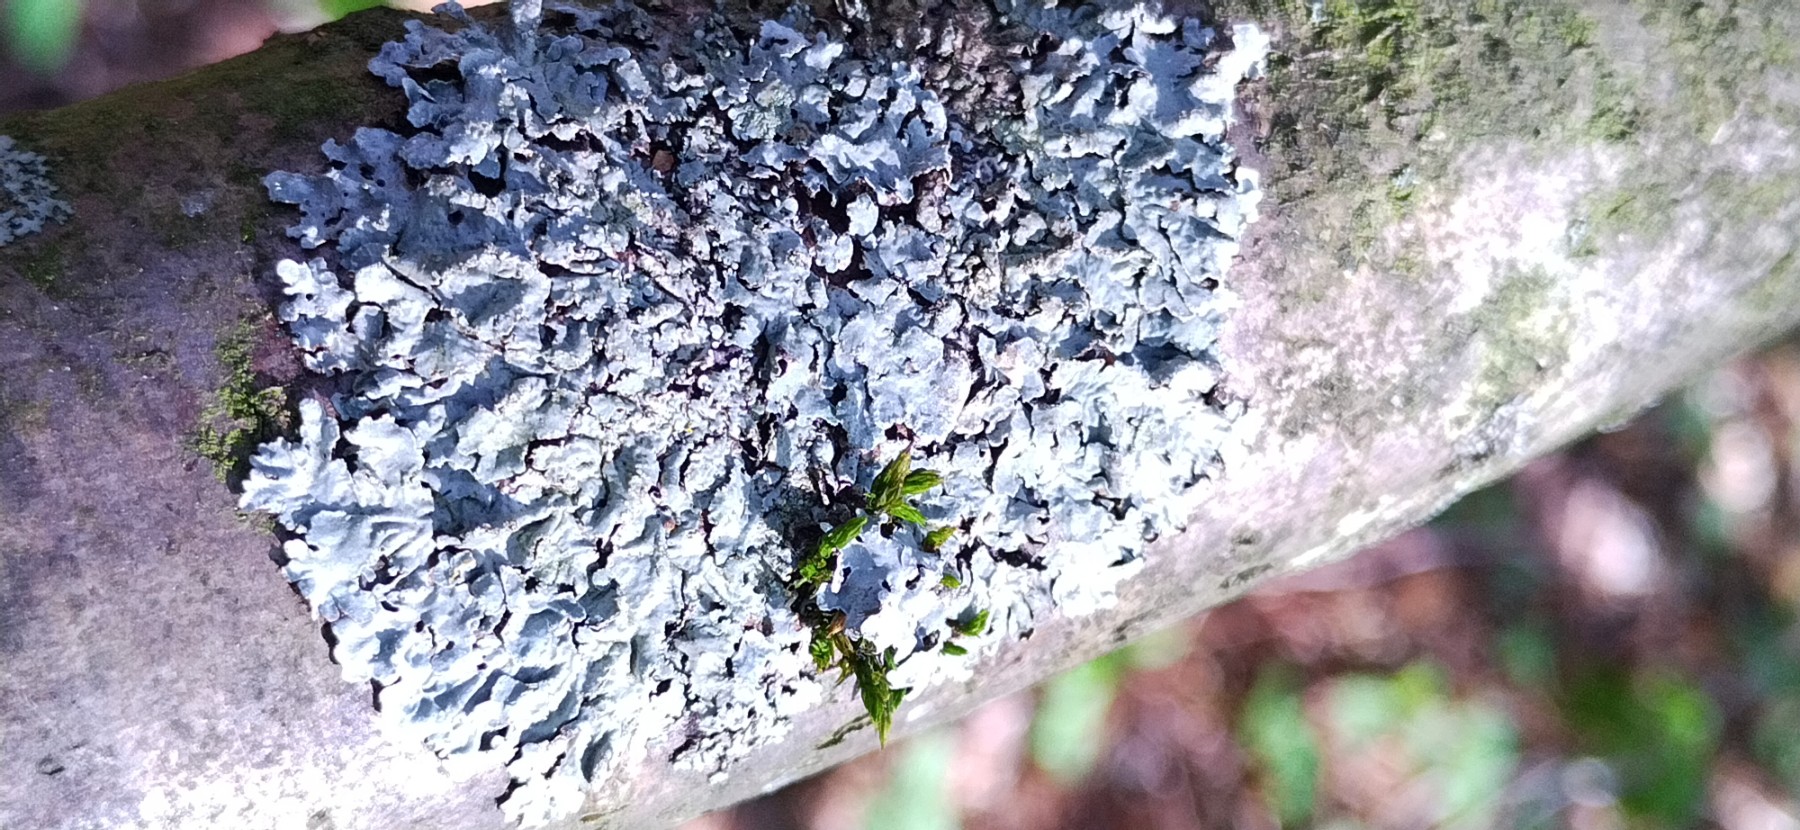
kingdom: Fungi
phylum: Ascomycota
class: Lecanoromycetes
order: Lecanorales
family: Parmeliaceae
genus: Parmelia
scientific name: Parmelia sulcata
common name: rynket skållav
